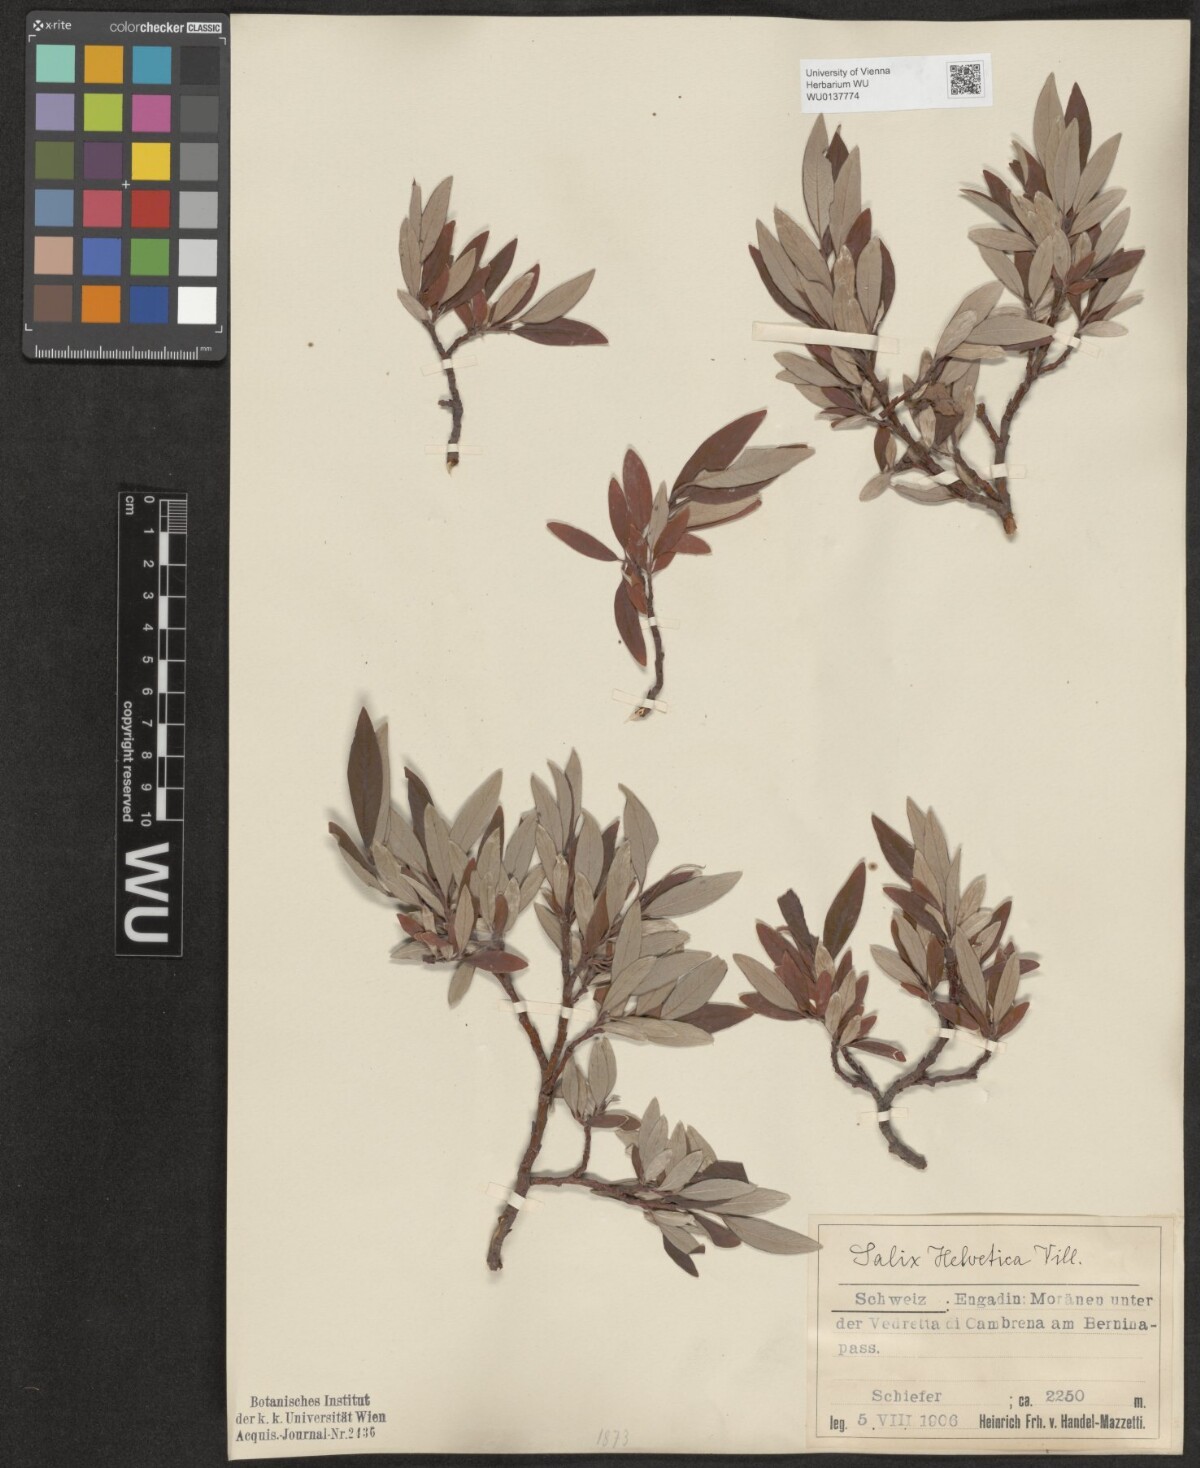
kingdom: Plantae
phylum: Tracheophyta
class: Magnoliopsida
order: Malpighiales
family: Salicaceae
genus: Salix
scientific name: Salix helvetica
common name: Swiss willow
